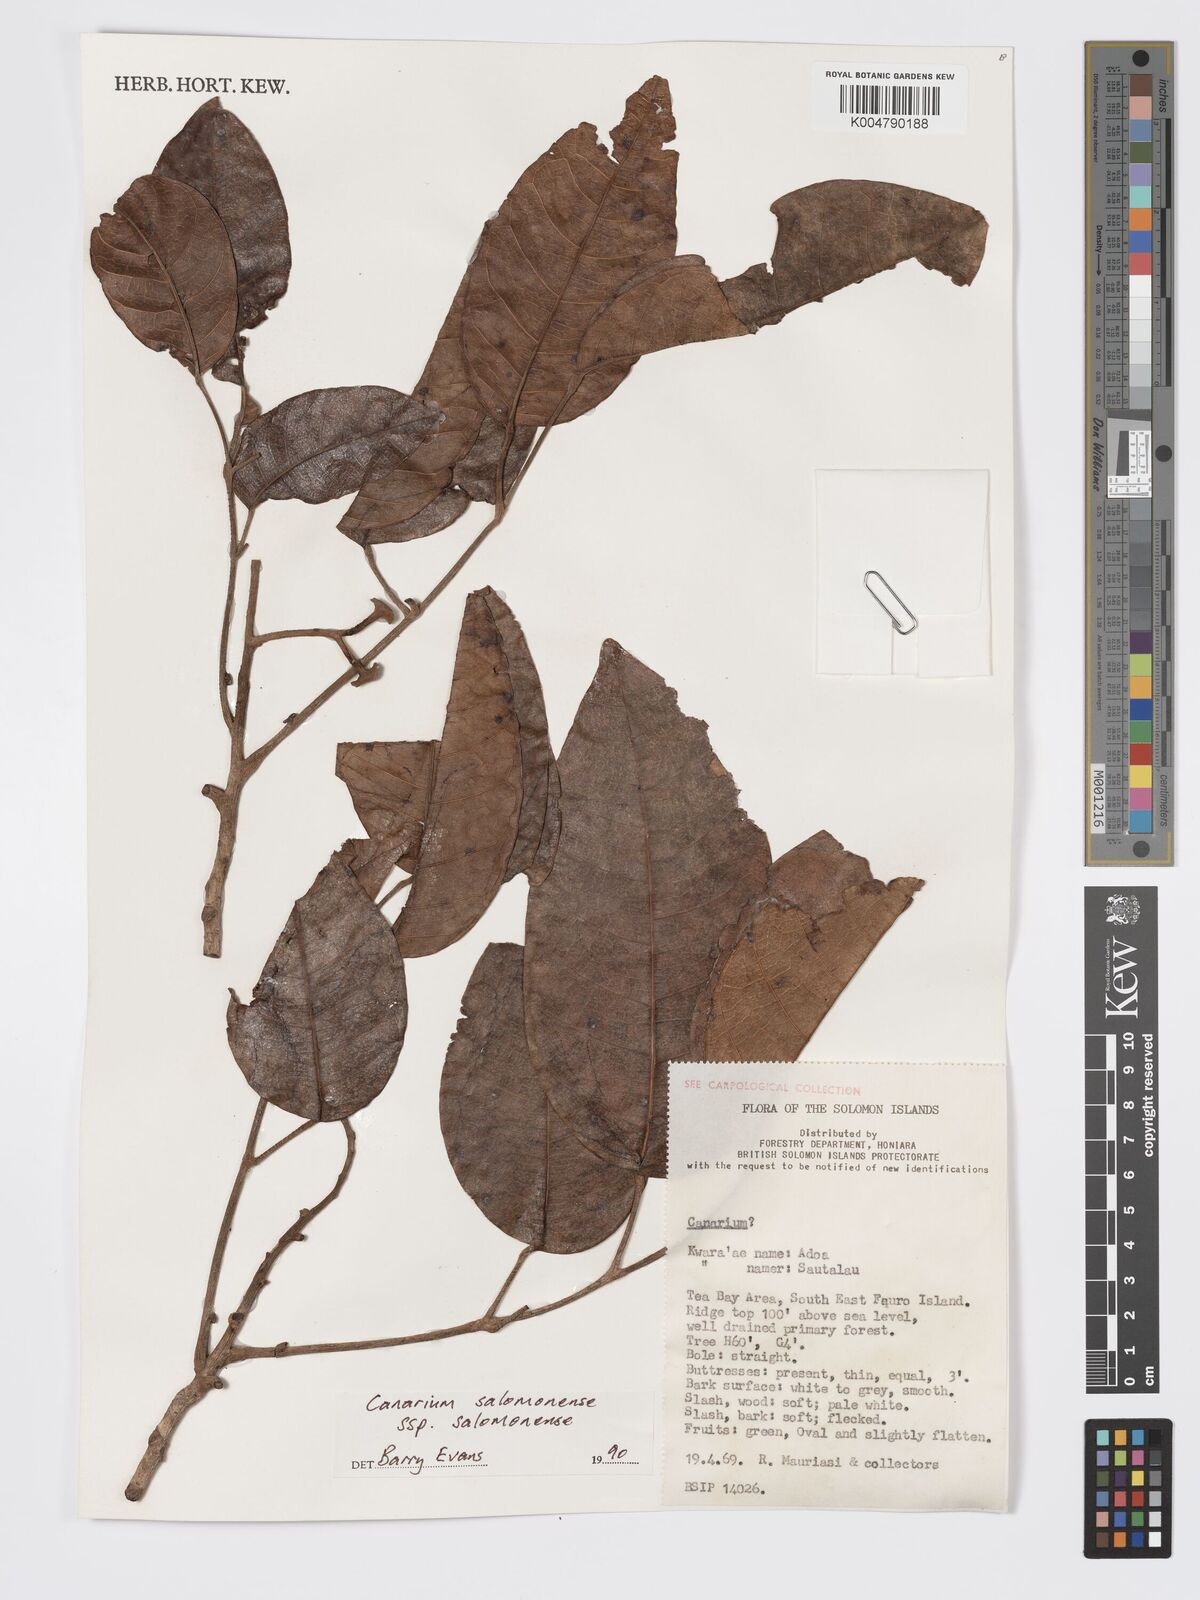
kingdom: Plantae
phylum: Tracheophyta
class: Magnoliopsida
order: Sapindales
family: Burseraceae
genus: Canarium
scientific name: Canarium salomonense
